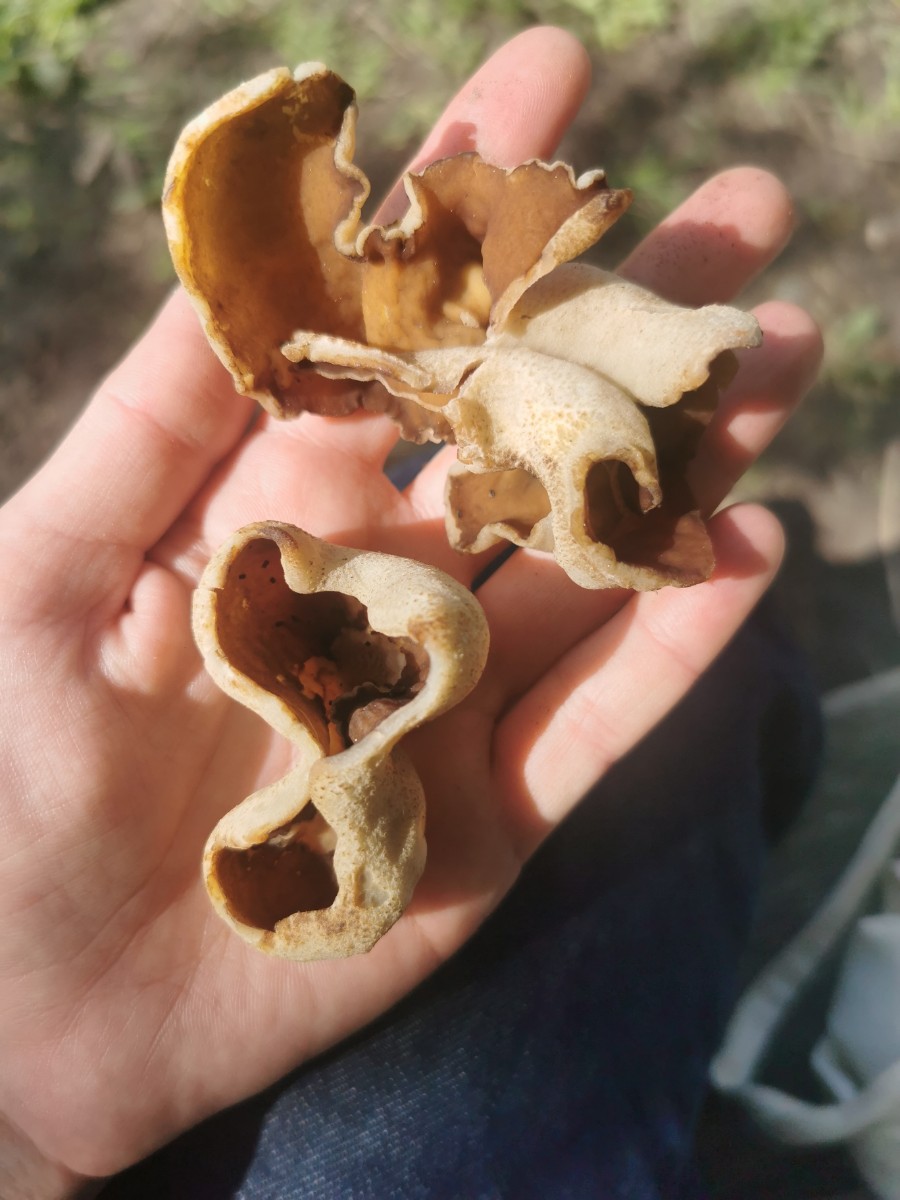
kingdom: Fungi
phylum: Ascomycota
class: Pezizomycetes
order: Pezizales
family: Morchellaceae
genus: Disciotis
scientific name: Disciotis venosa
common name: klor-bægermorkel
